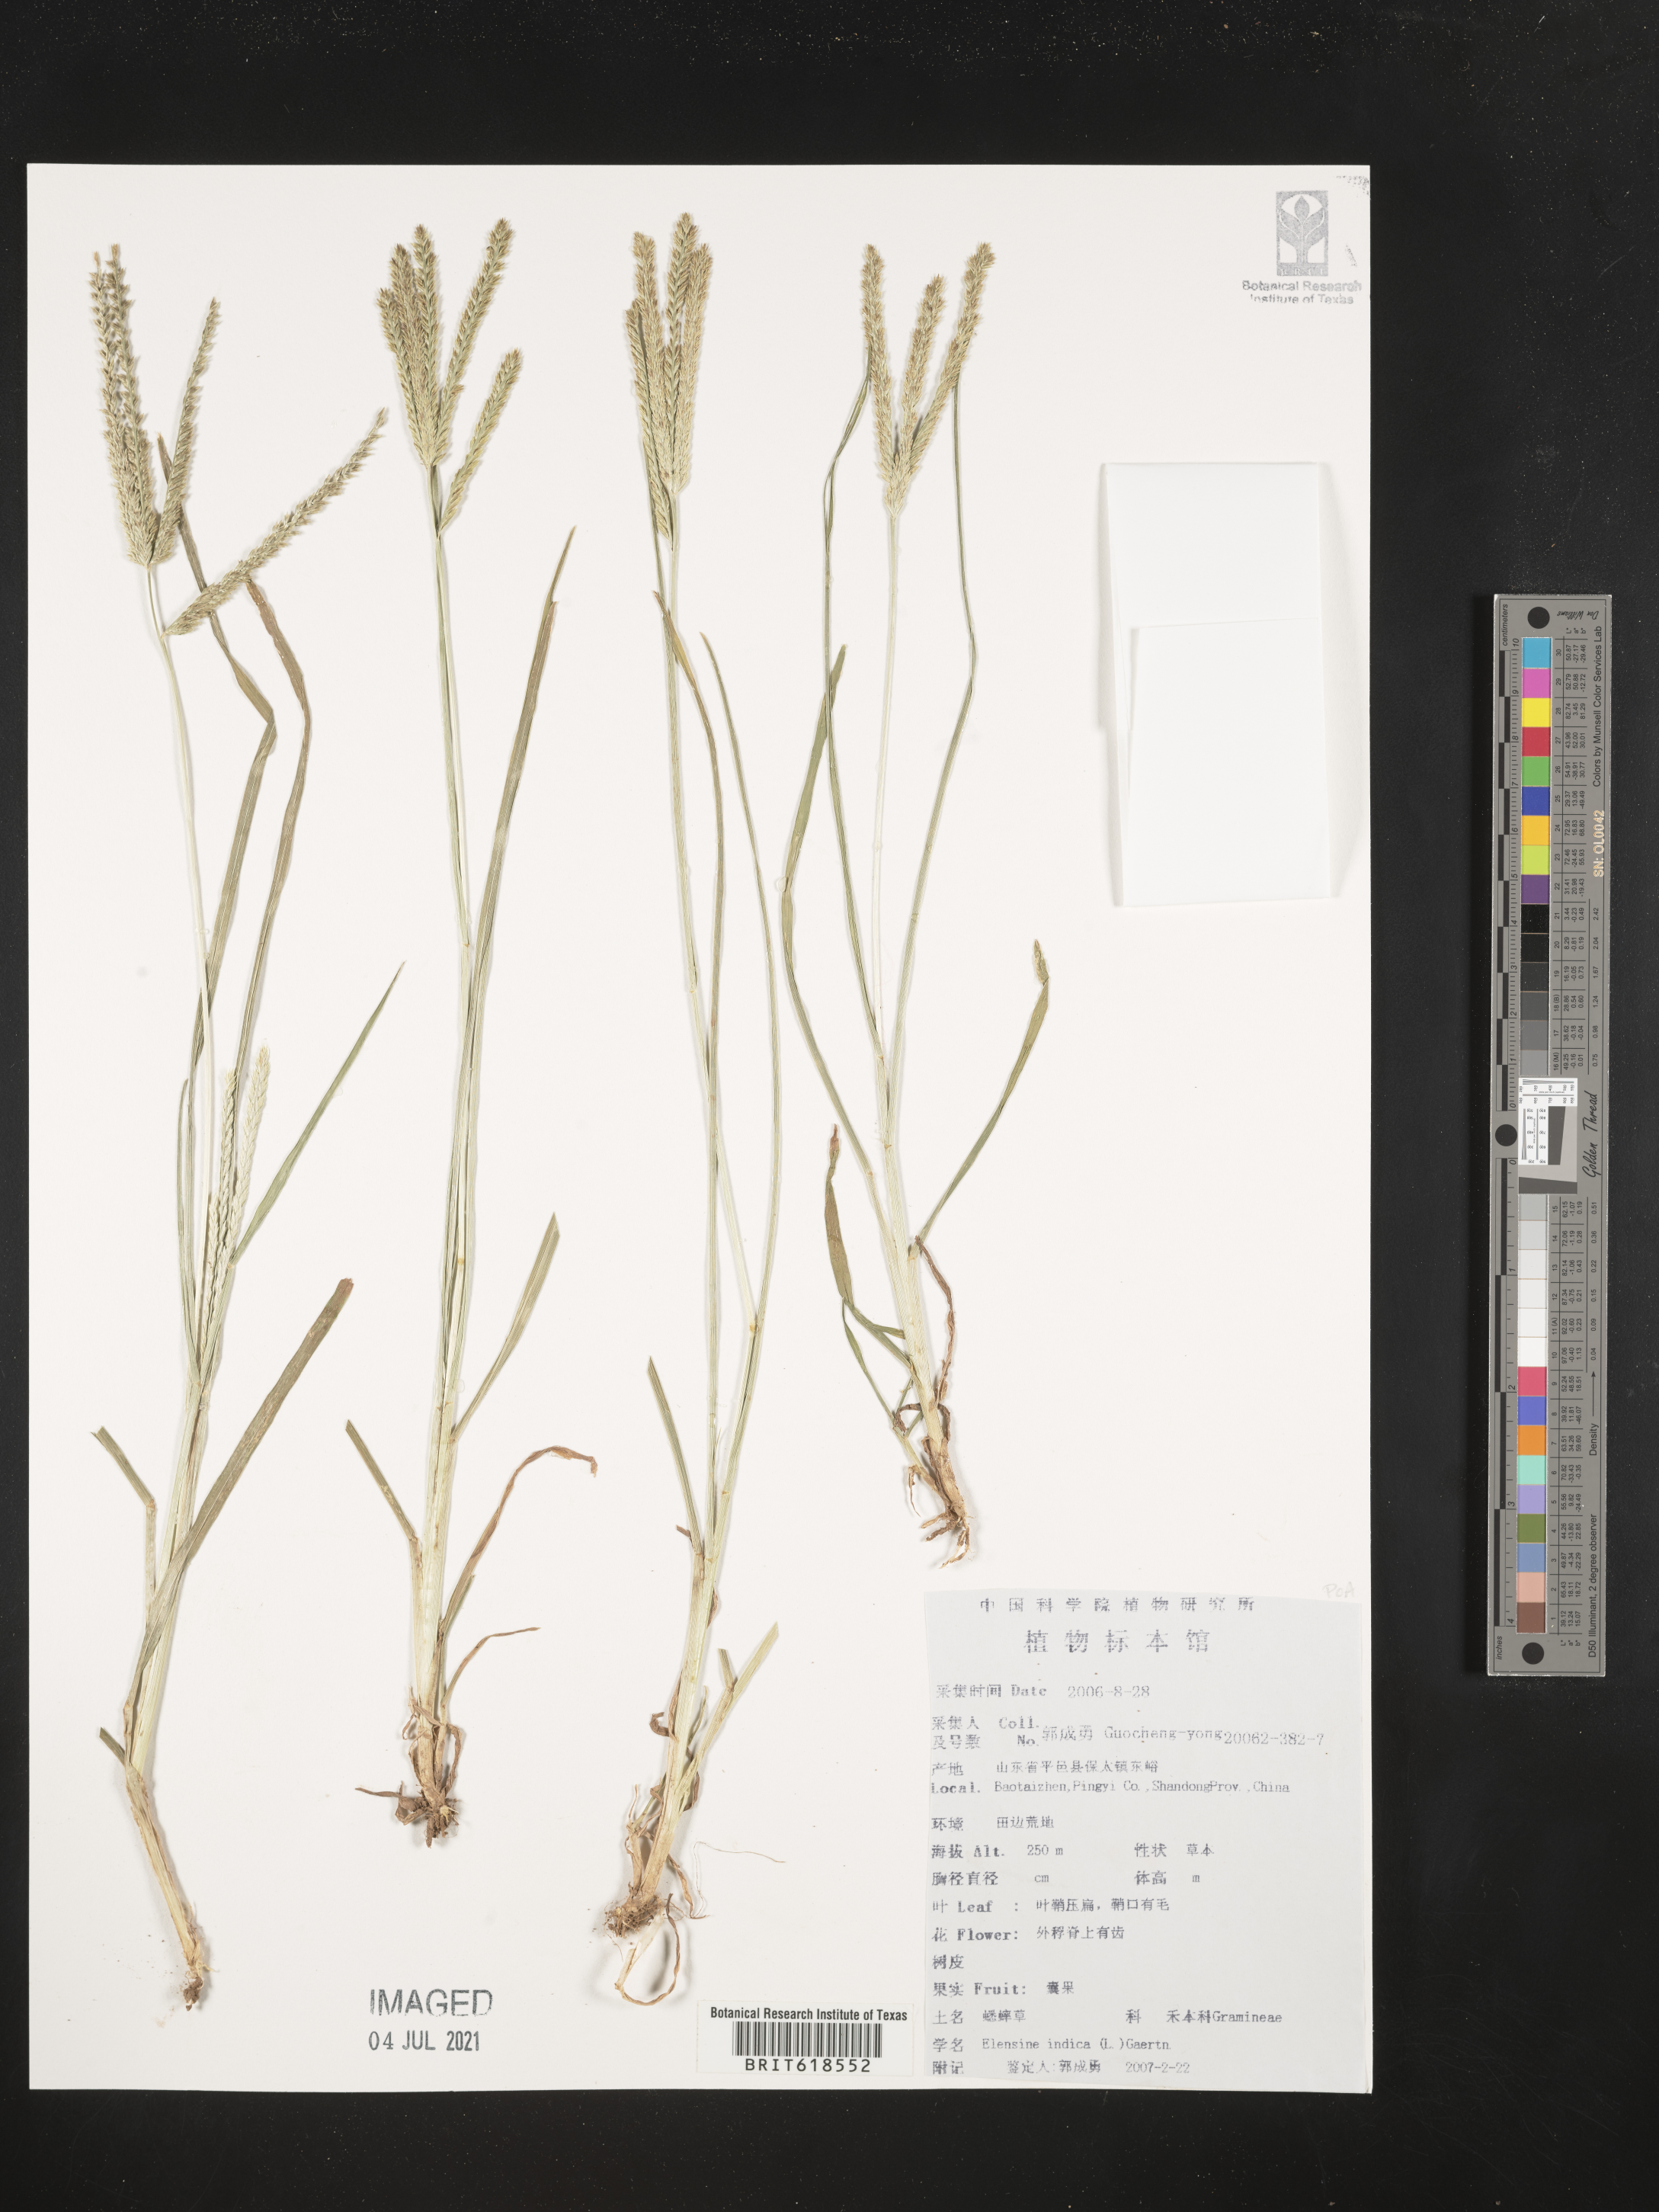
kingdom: Plantae
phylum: Tracheophyta
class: Liliopsida
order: Poales
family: Poaceae
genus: Eleusine
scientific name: Eleusine indica
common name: Yard-grass
